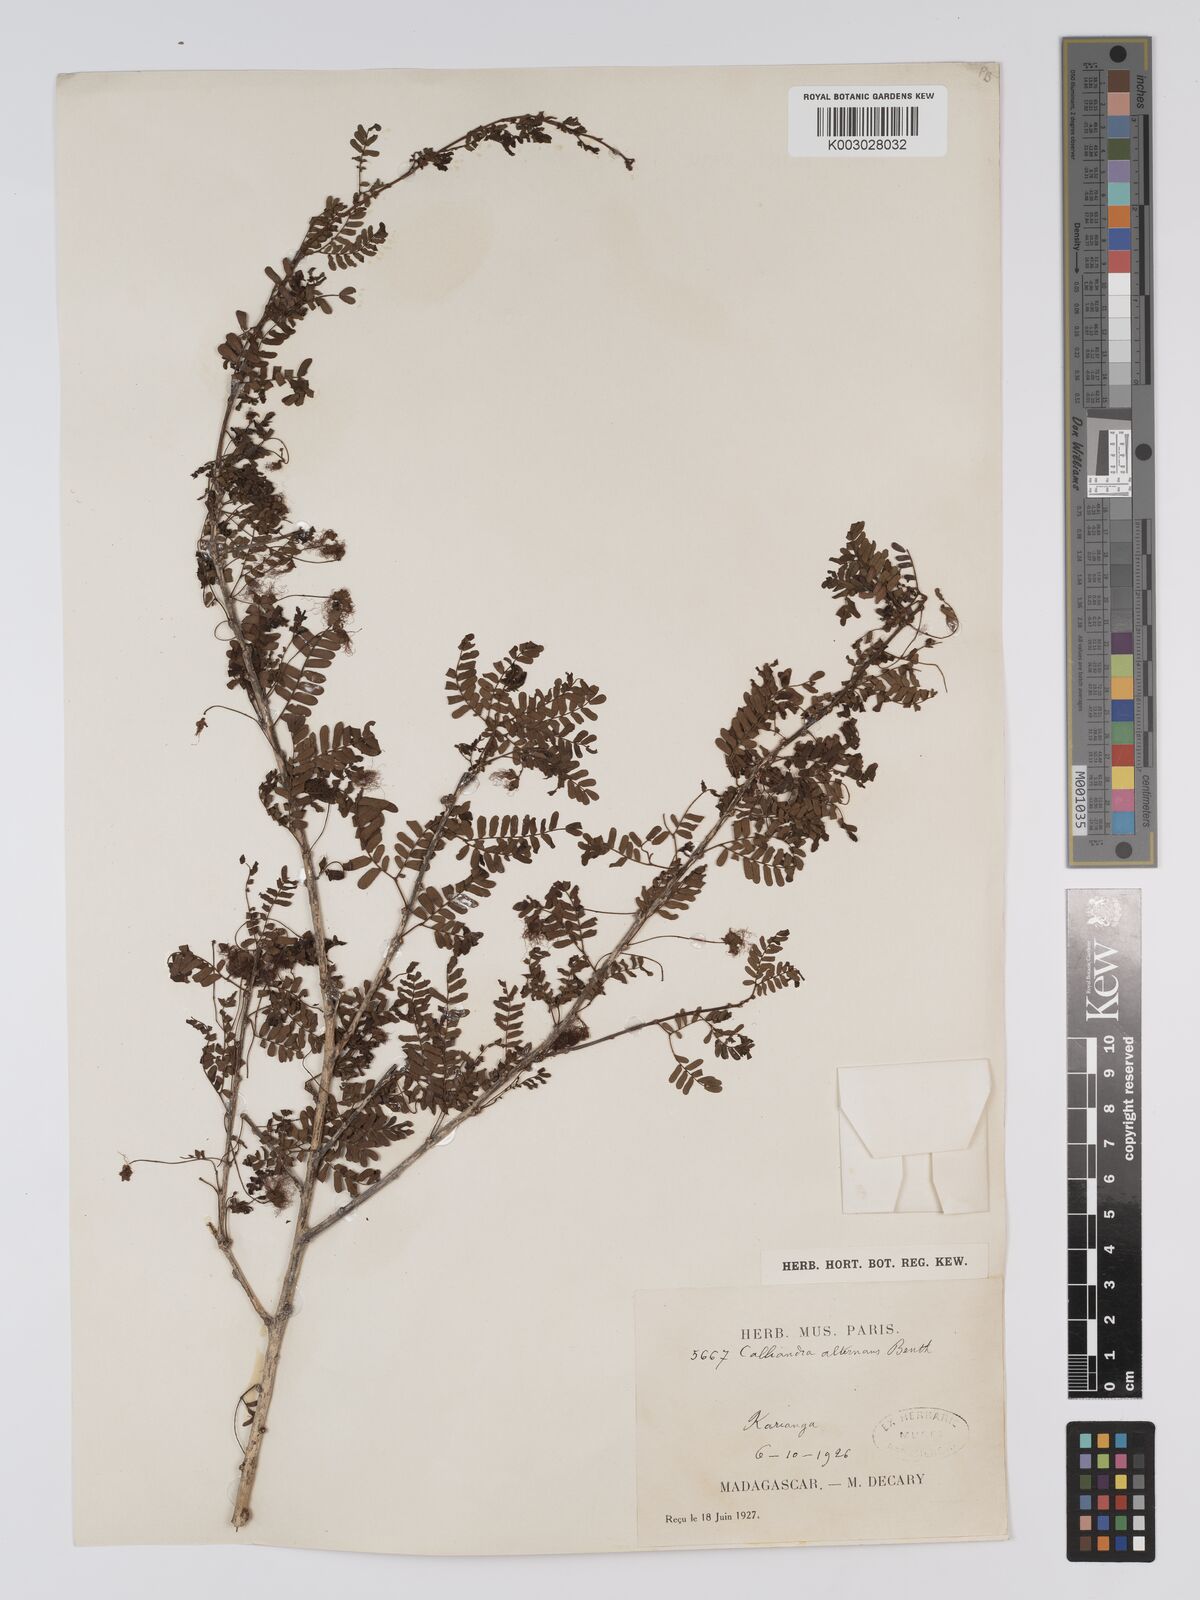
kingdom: Plantae
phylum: Tracheophyta
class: Magnoliopsida
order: Fabales
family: Fabaceae
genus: Viguieranthus
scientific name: Viguieranthus alternans
